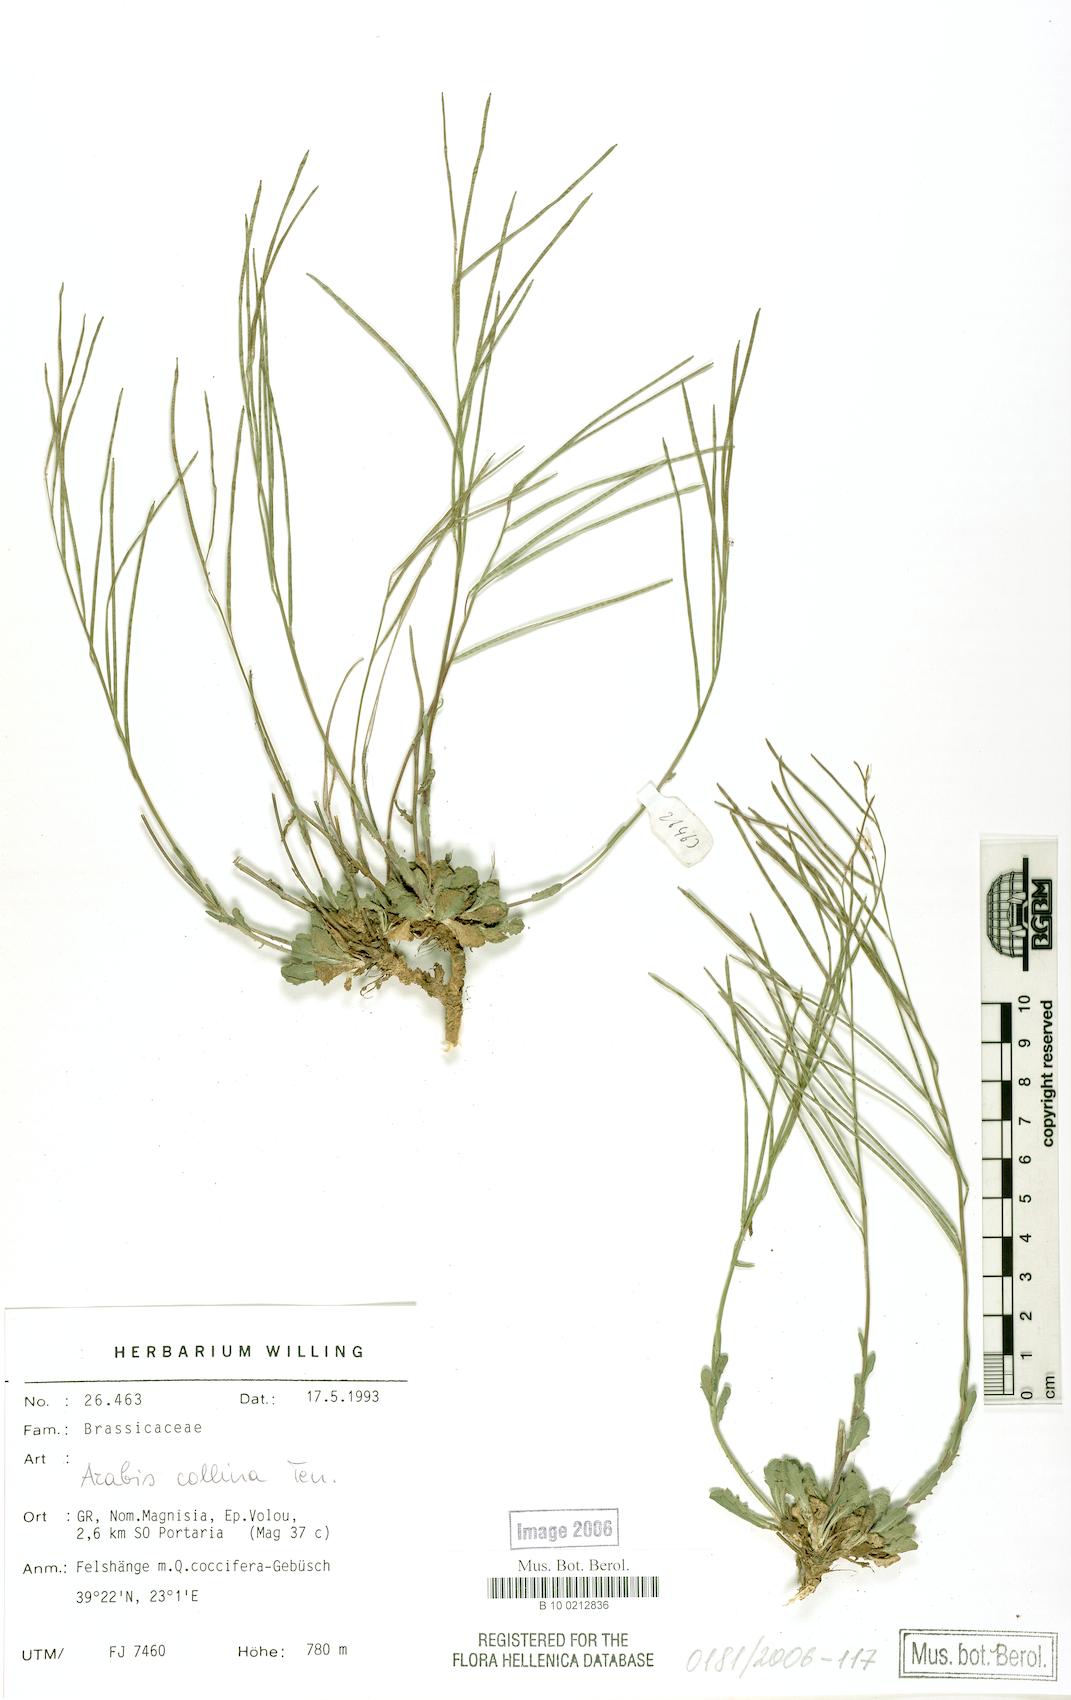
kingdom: Plantae
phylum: Tracheophyta
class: Magnoliopsida
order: Brassicales
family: Brassicaceae
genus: Arabis
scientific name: Arabis collina
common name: Rosy cress
